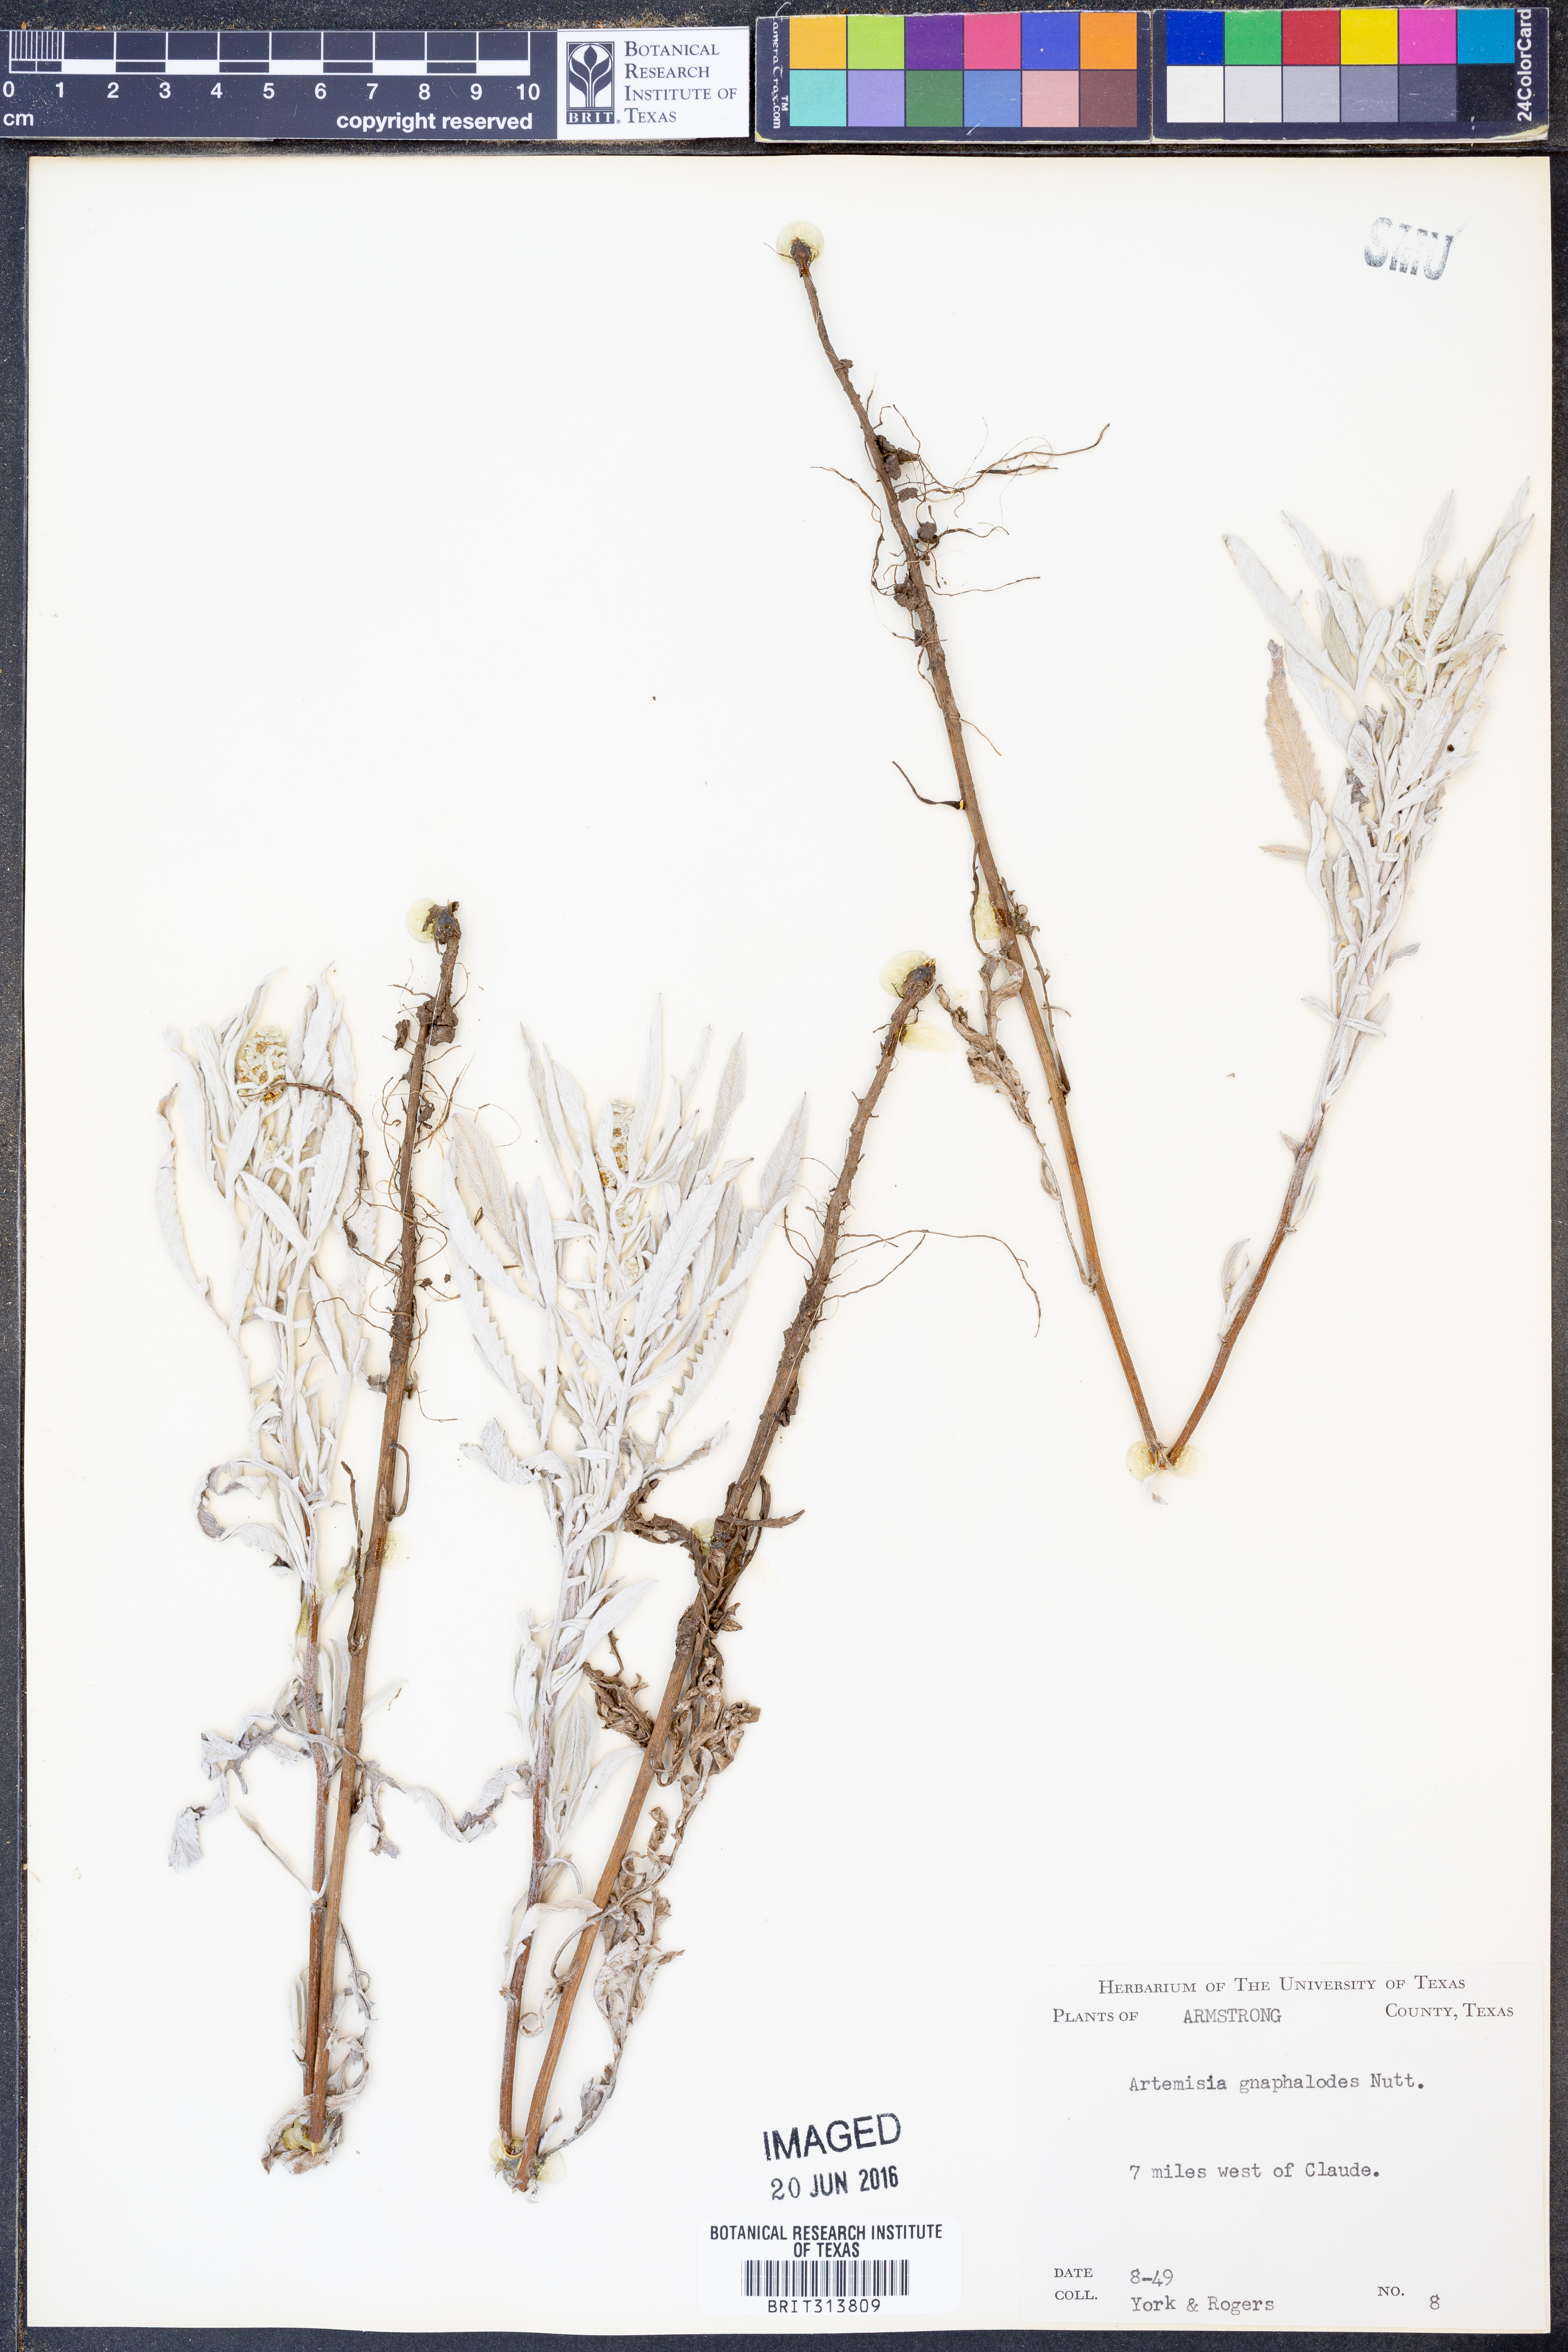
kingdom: Plantae
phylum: Tracheophyta
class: Magnoliopsida
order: Asterales
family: Asteraceae
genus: Artemisia
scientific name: Artemisia ludoviciana
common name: Western mugwort
